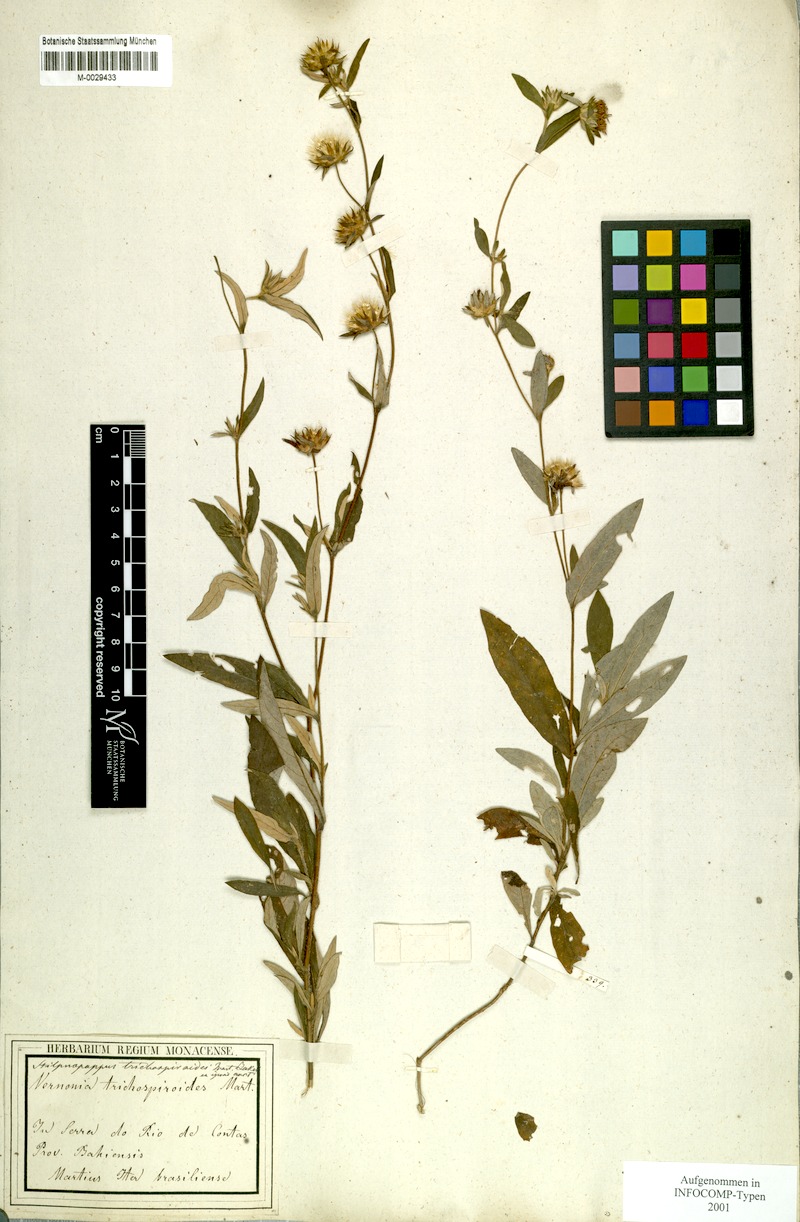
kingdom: Plantae
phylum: Tracheophyta
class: Magnoliopsida
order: Asterales
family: Asteraceae
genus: Stilpnopappus
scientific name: Stilpnopappus trichospiroides
